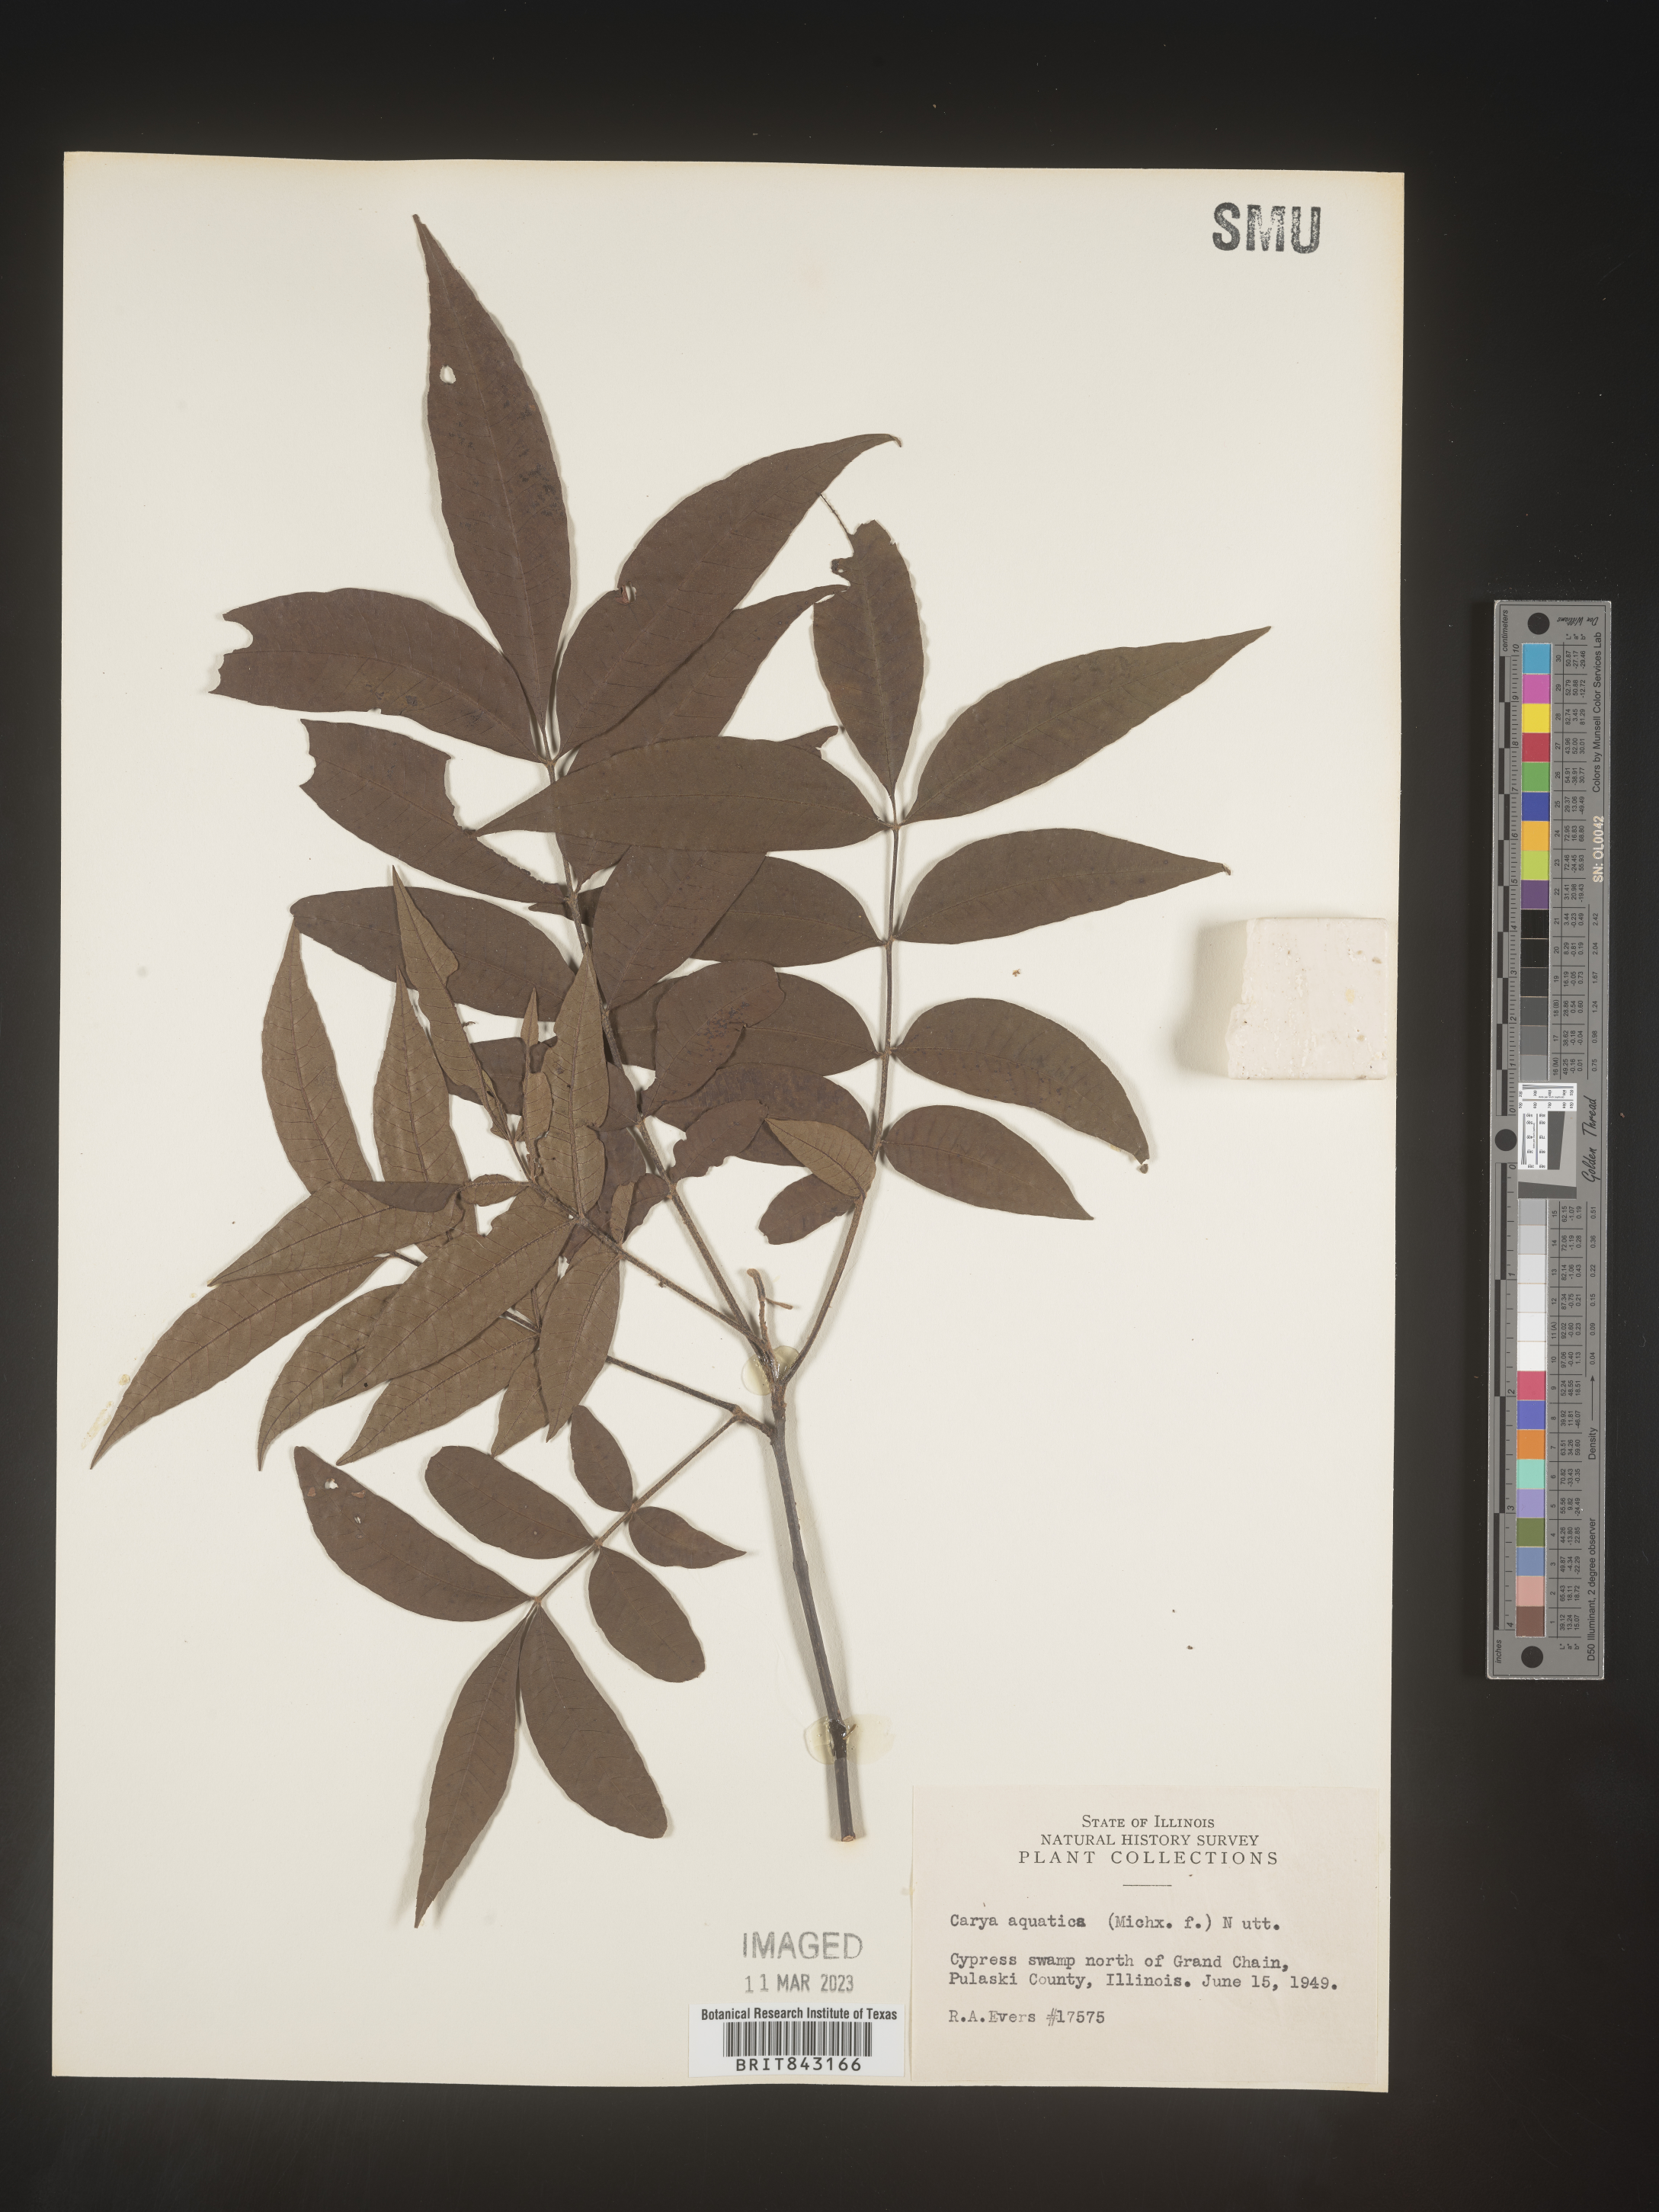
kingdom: Plantae
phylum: Tracheophyta
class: Magnoliopsida
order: Fagales
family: Juglandaceae
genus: Carya
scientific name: Carya aquatica
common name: Water hickory
